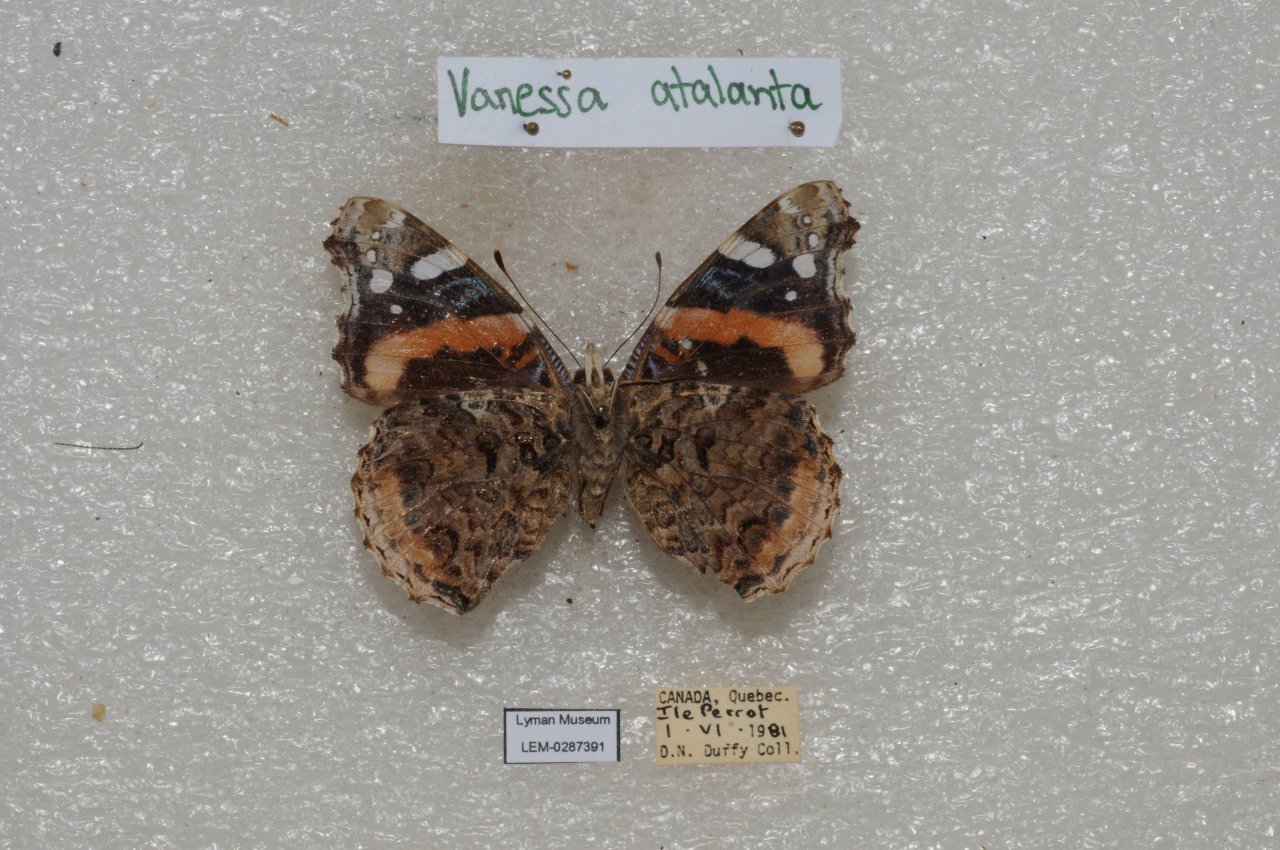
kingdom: Animalia
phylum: Arthropoda
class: Insecta
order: Lepidoptera
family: Nymphalidae
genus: Vanessa
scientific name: Vanessa atalanta
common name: Red Admiral
